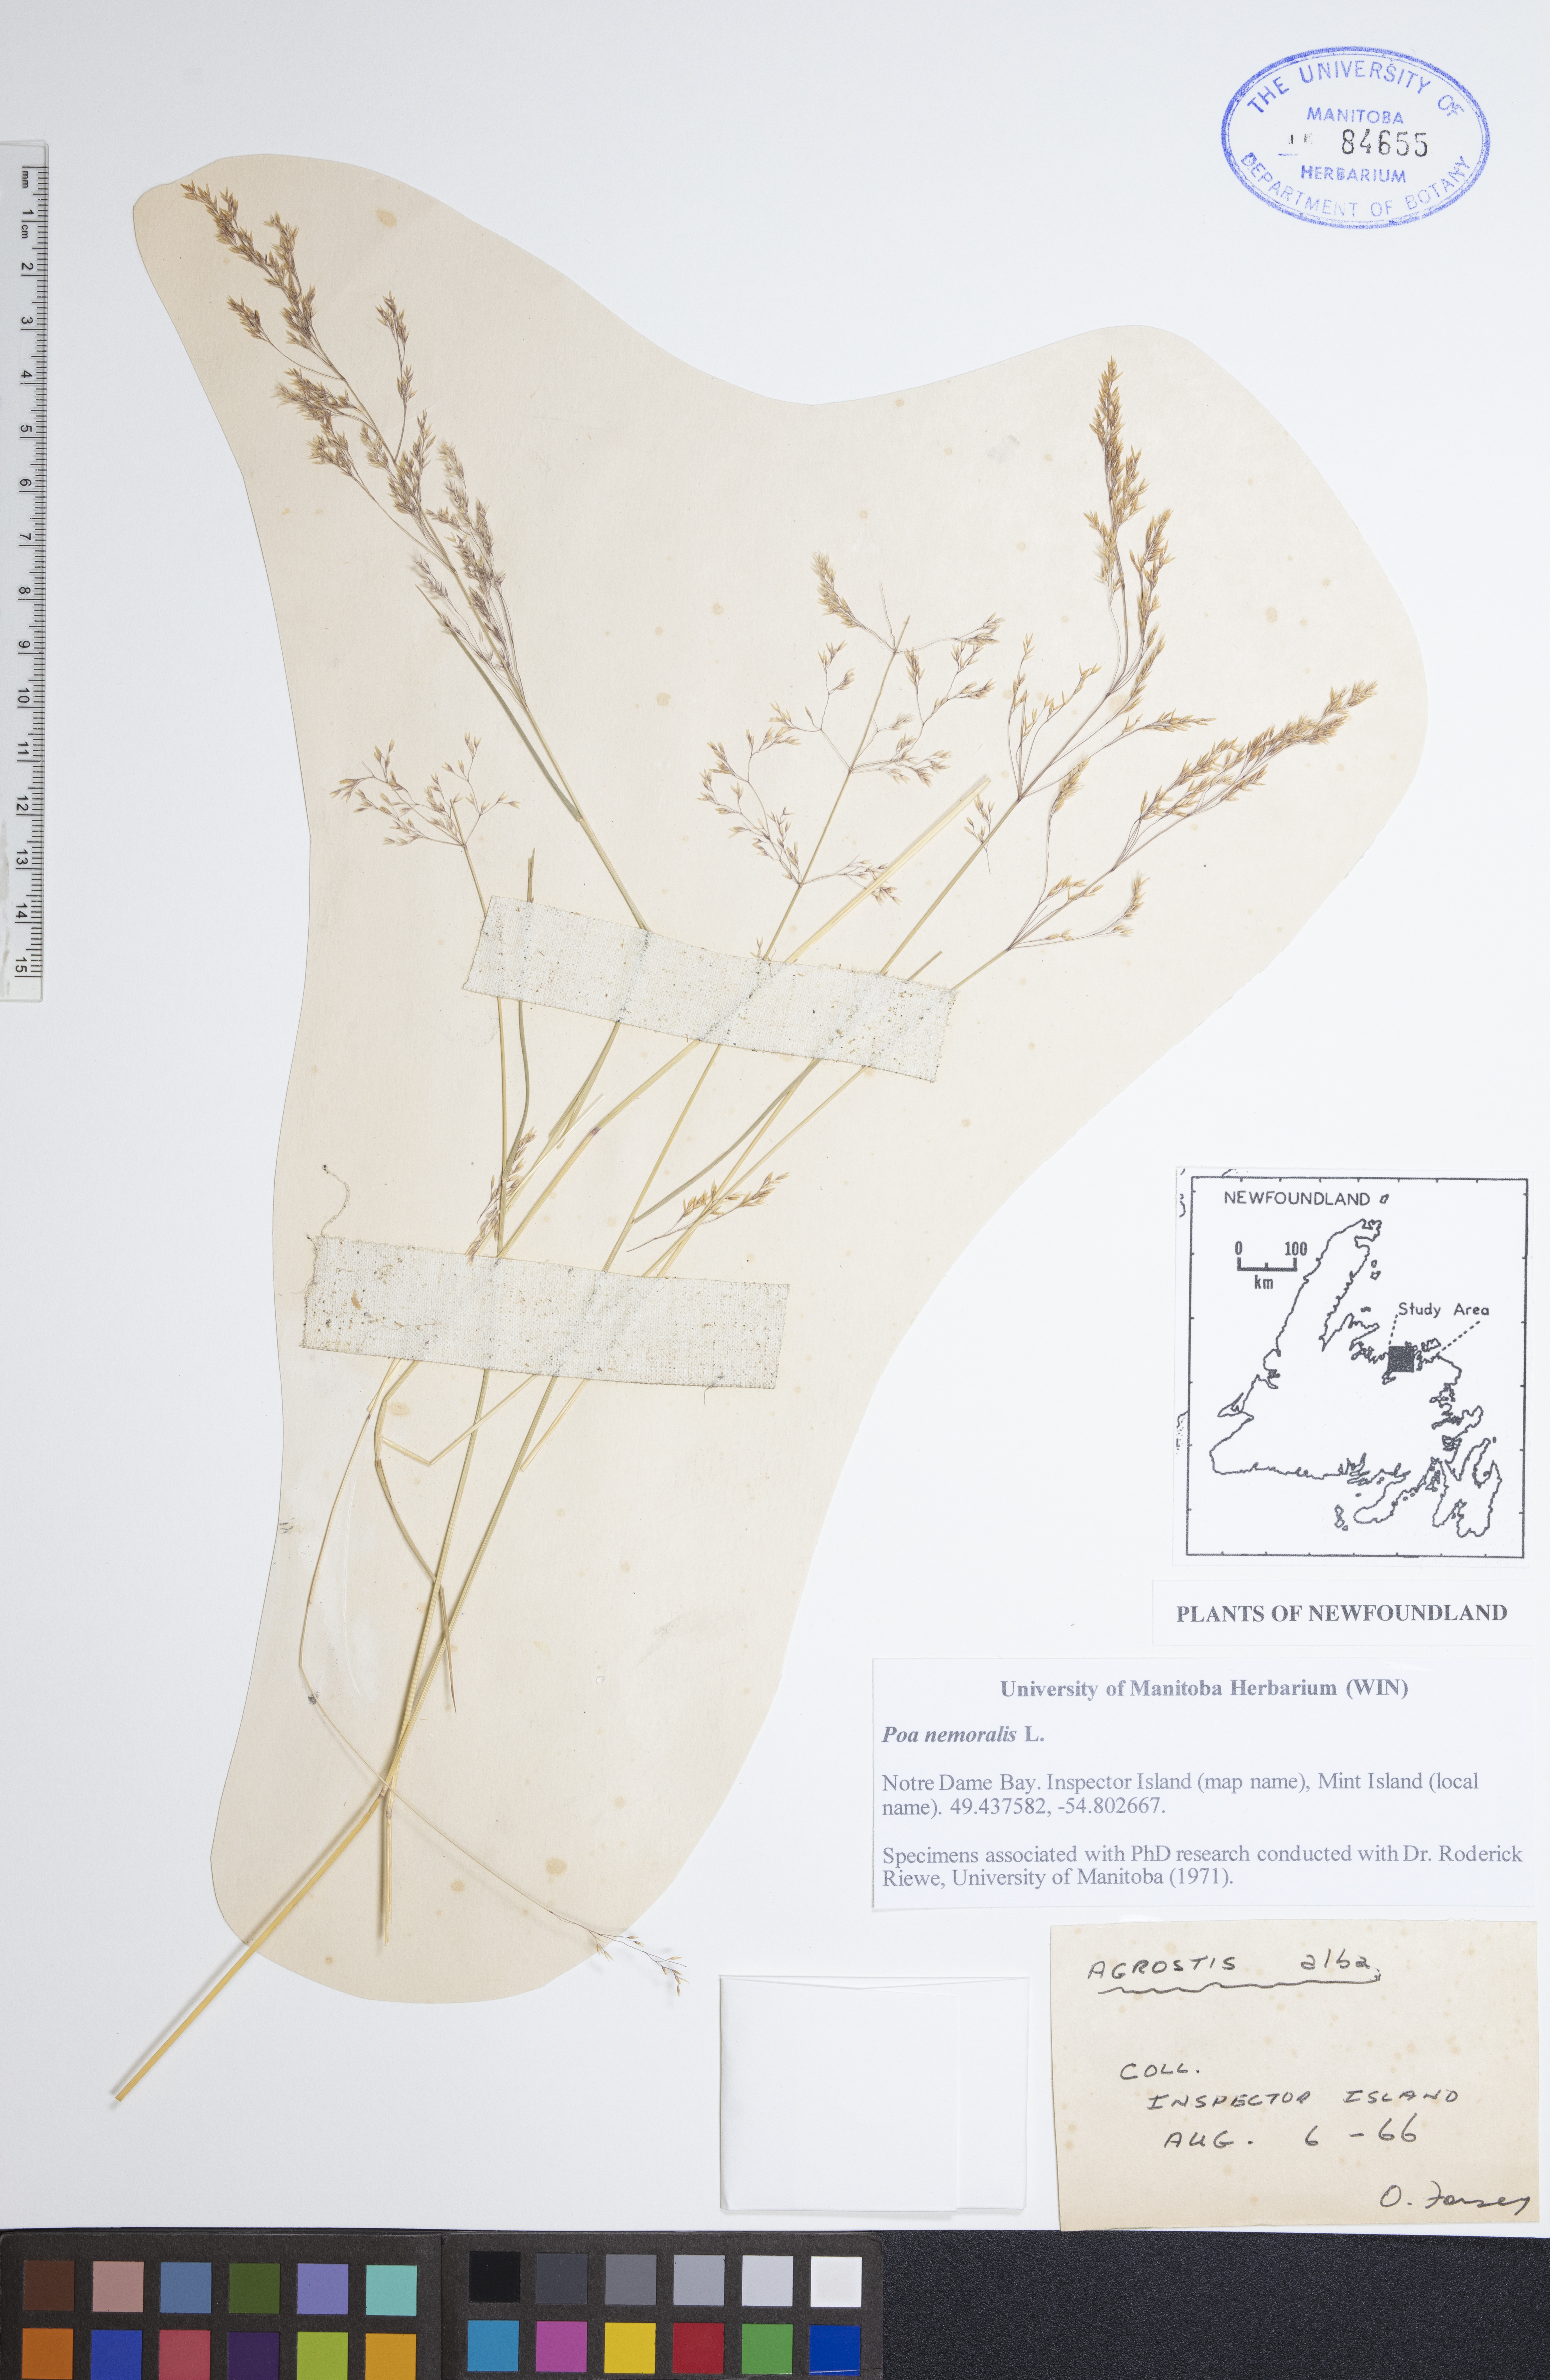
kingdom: Plantae
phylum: Tracheophyta
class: Liliopsida
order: Poales
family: Poaceae
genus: Agrostis
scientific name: Agrostis alba
